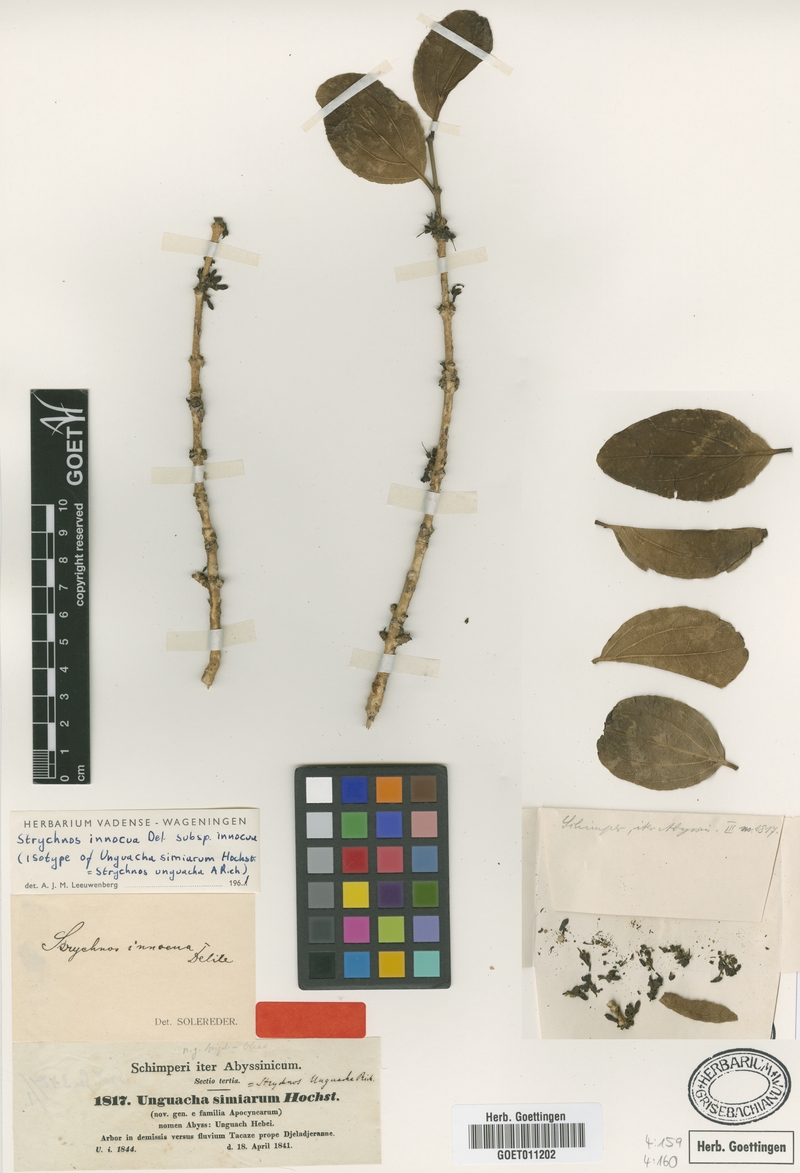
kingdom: Plantae
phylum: Tracheophyta
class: Magnoliopsida
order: Gentianales
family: Loganiaceae
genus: Strychnos
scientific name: Strychnos innocua
